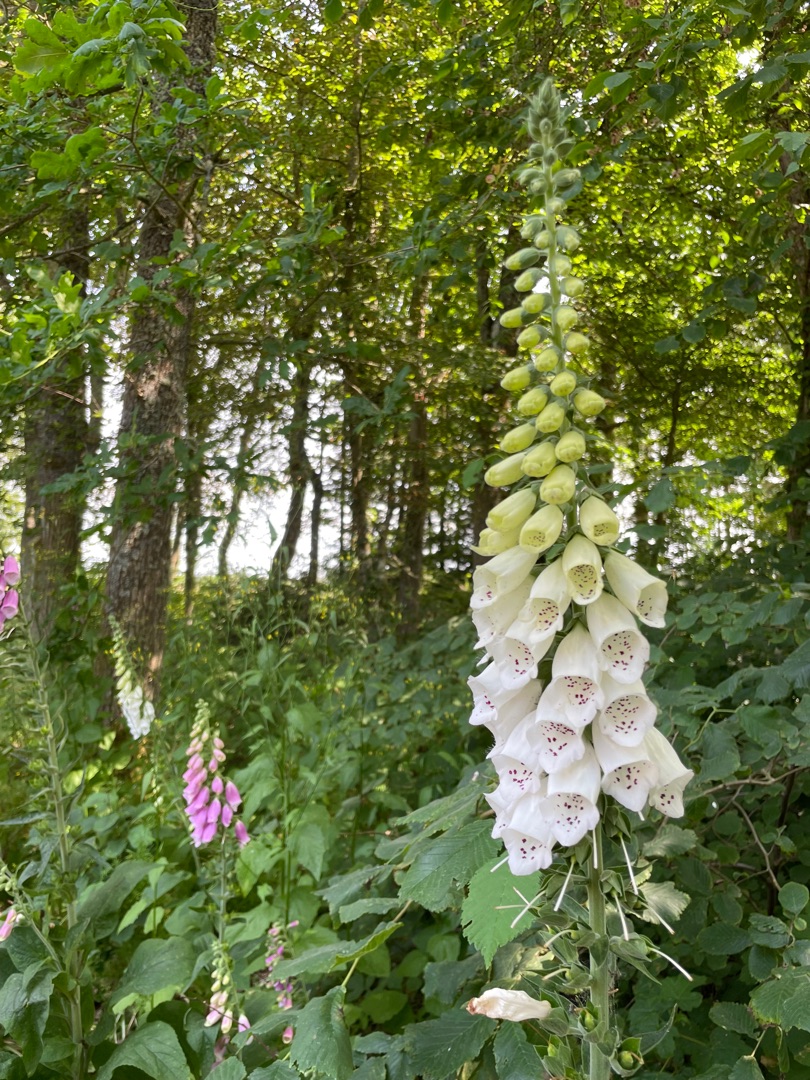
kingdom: Plantae
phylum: Tracheophyta
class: Magnoliopsida
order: Lamiales
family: Plantaginaceae
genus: Digitalis
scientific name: Digitalis purpurea
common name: Almindelig fingerbøl
